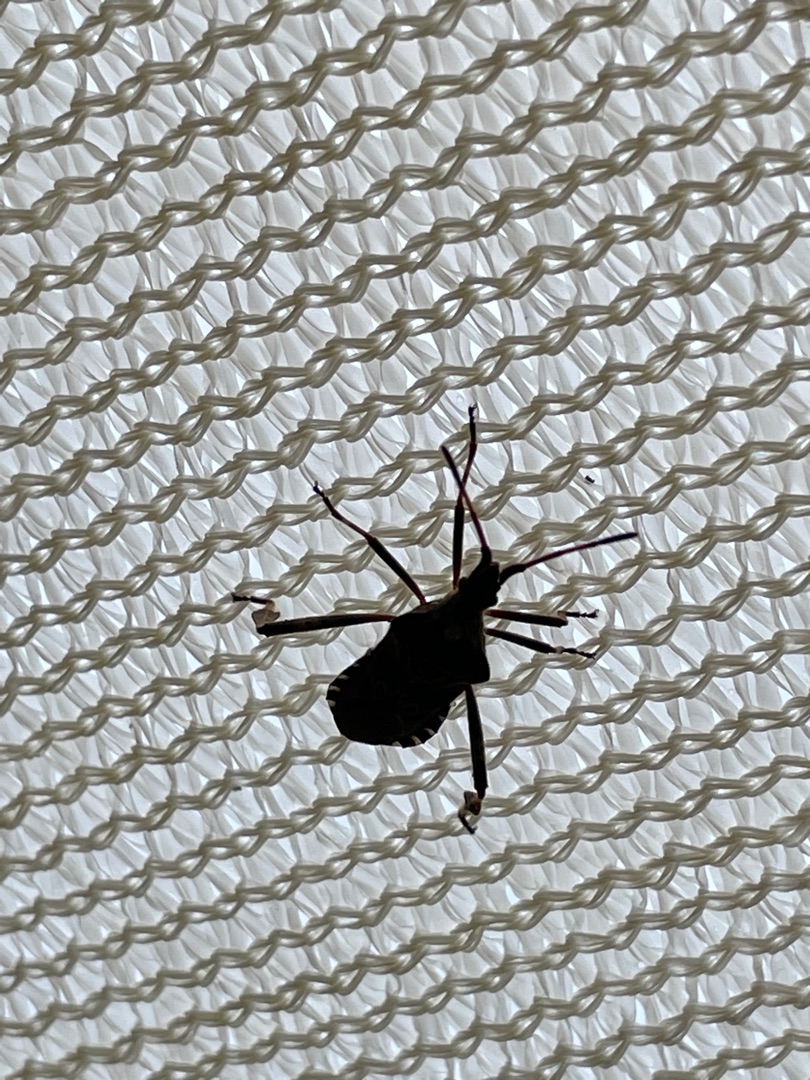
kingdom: Animalia
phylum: Arthropoda
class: Insecta
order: Hemiptera
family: Coreidae
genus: Leptoglossus
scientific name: Leptoglossus occidentalis
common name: Amerikansk fyrretæge
